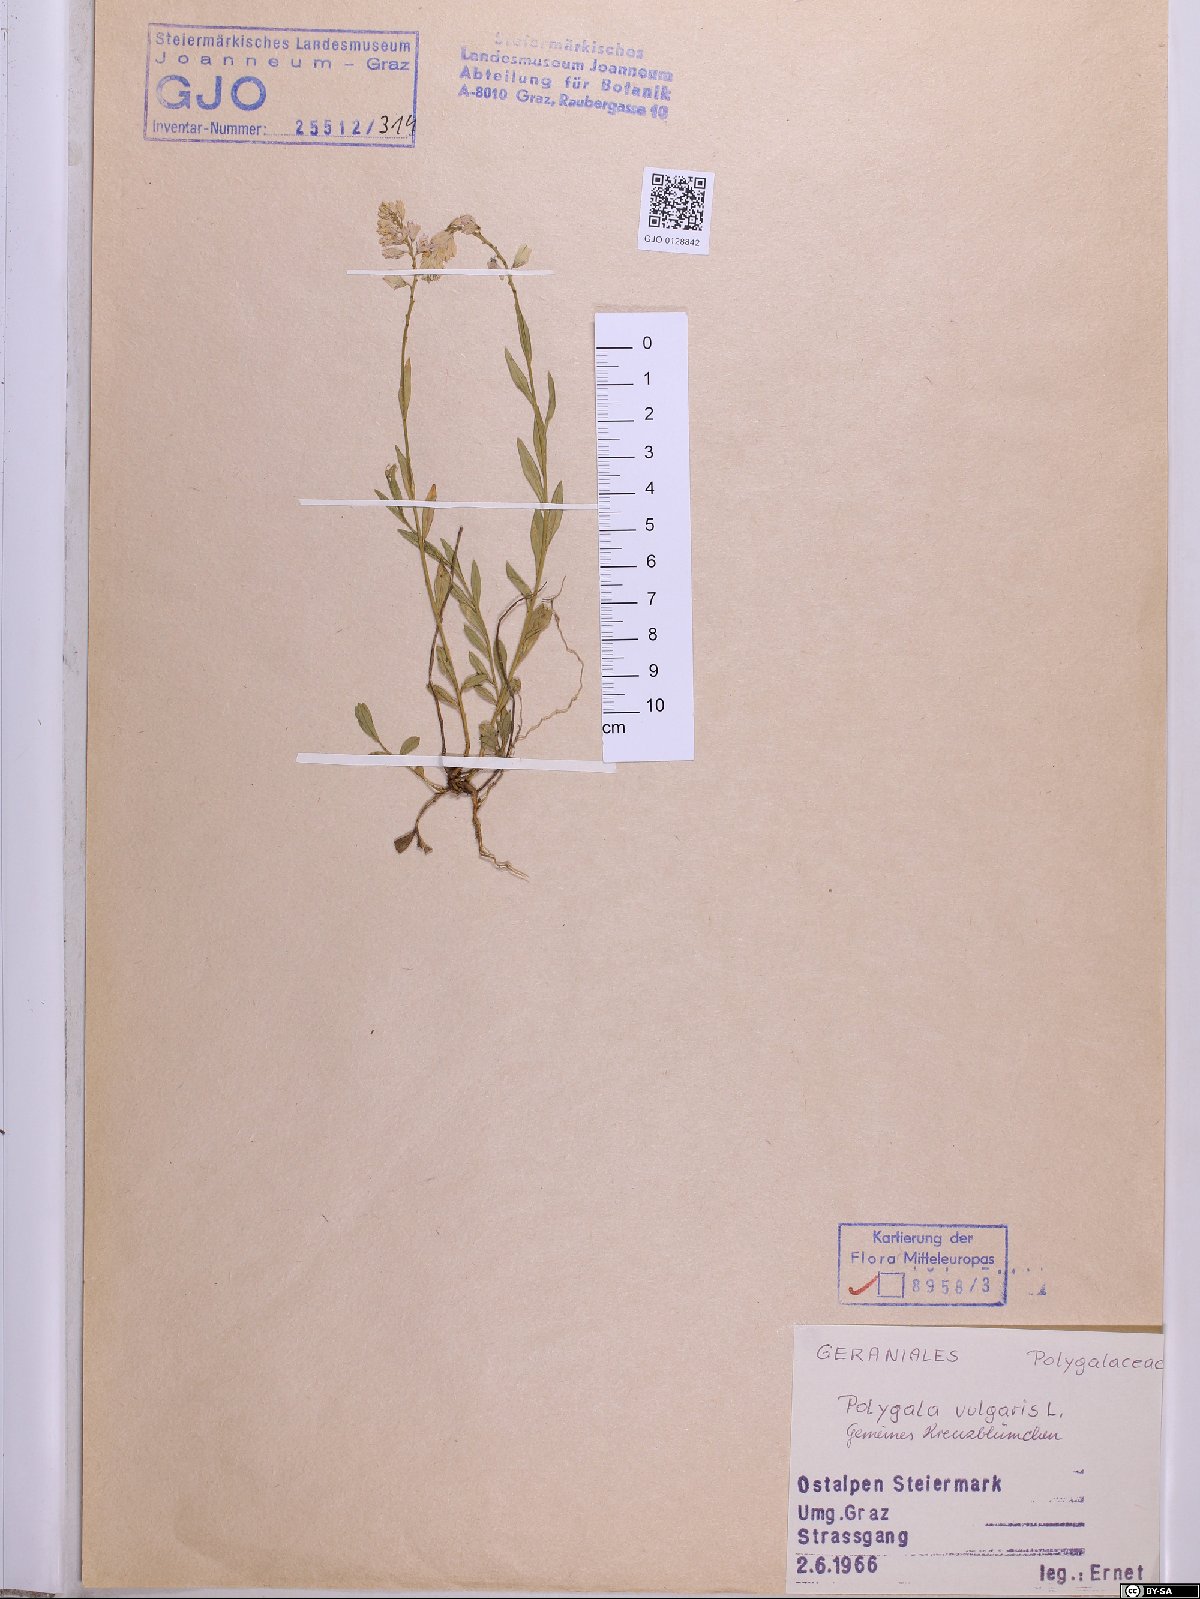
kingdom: Plantae
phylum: Tracheophyta
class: Magnoliopsida
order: Fabales
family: Polygalaceae
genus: Polygala
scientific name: Polygala vulgaris
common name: Common milkwort
